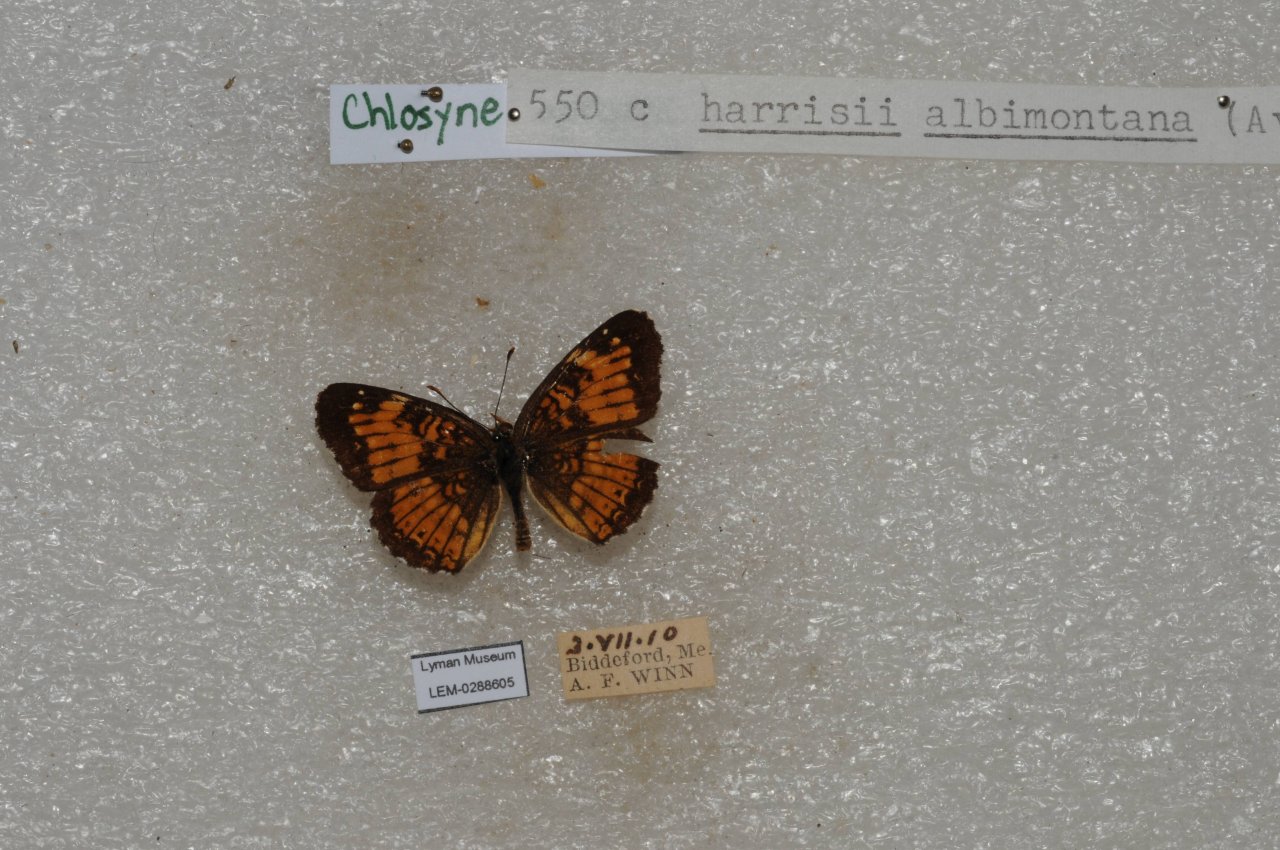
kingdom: Animalia
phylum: Arthropoda
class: Insecta
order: Lepidoptera
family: Nymphalidae
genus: Chlosyne
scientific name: Chlosyne harrisii
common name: Harris's Checkerspot
